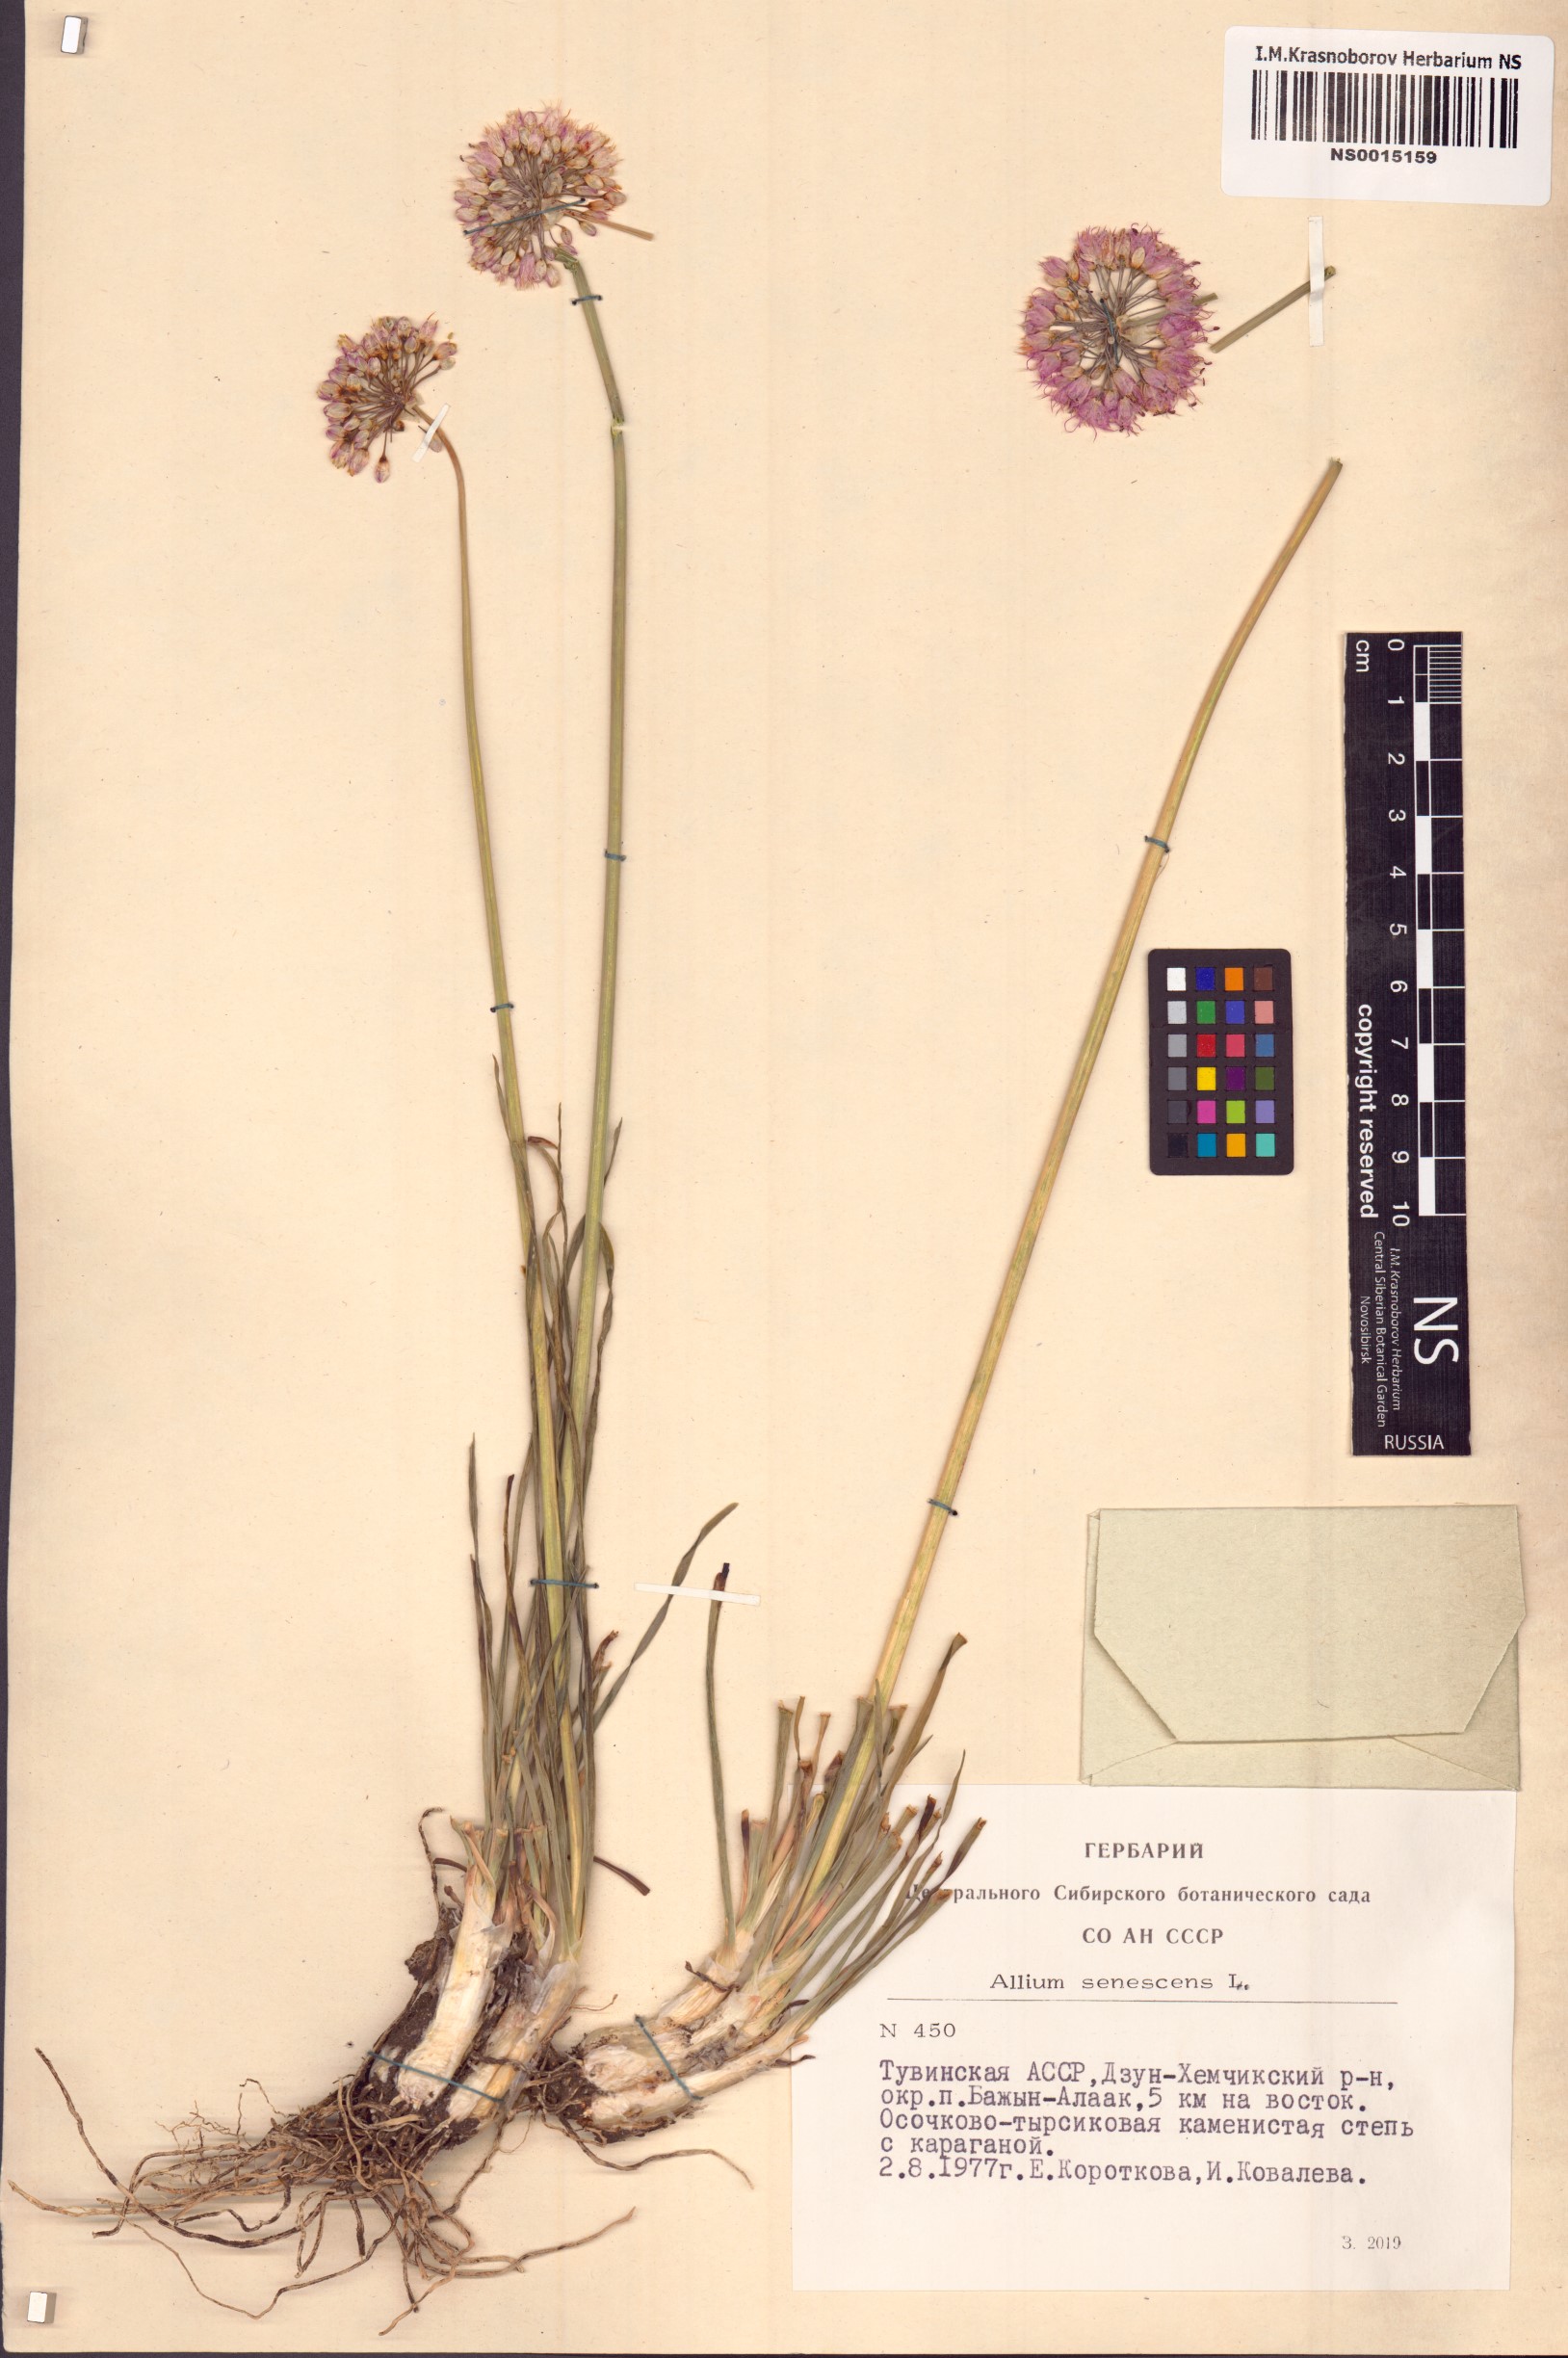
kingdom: Plantae
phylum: Tracheophyta
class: Liliopsida
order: Asparagales
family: Amaryllidaceae
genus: Allium
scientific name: Allium senescens
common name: German garlic
